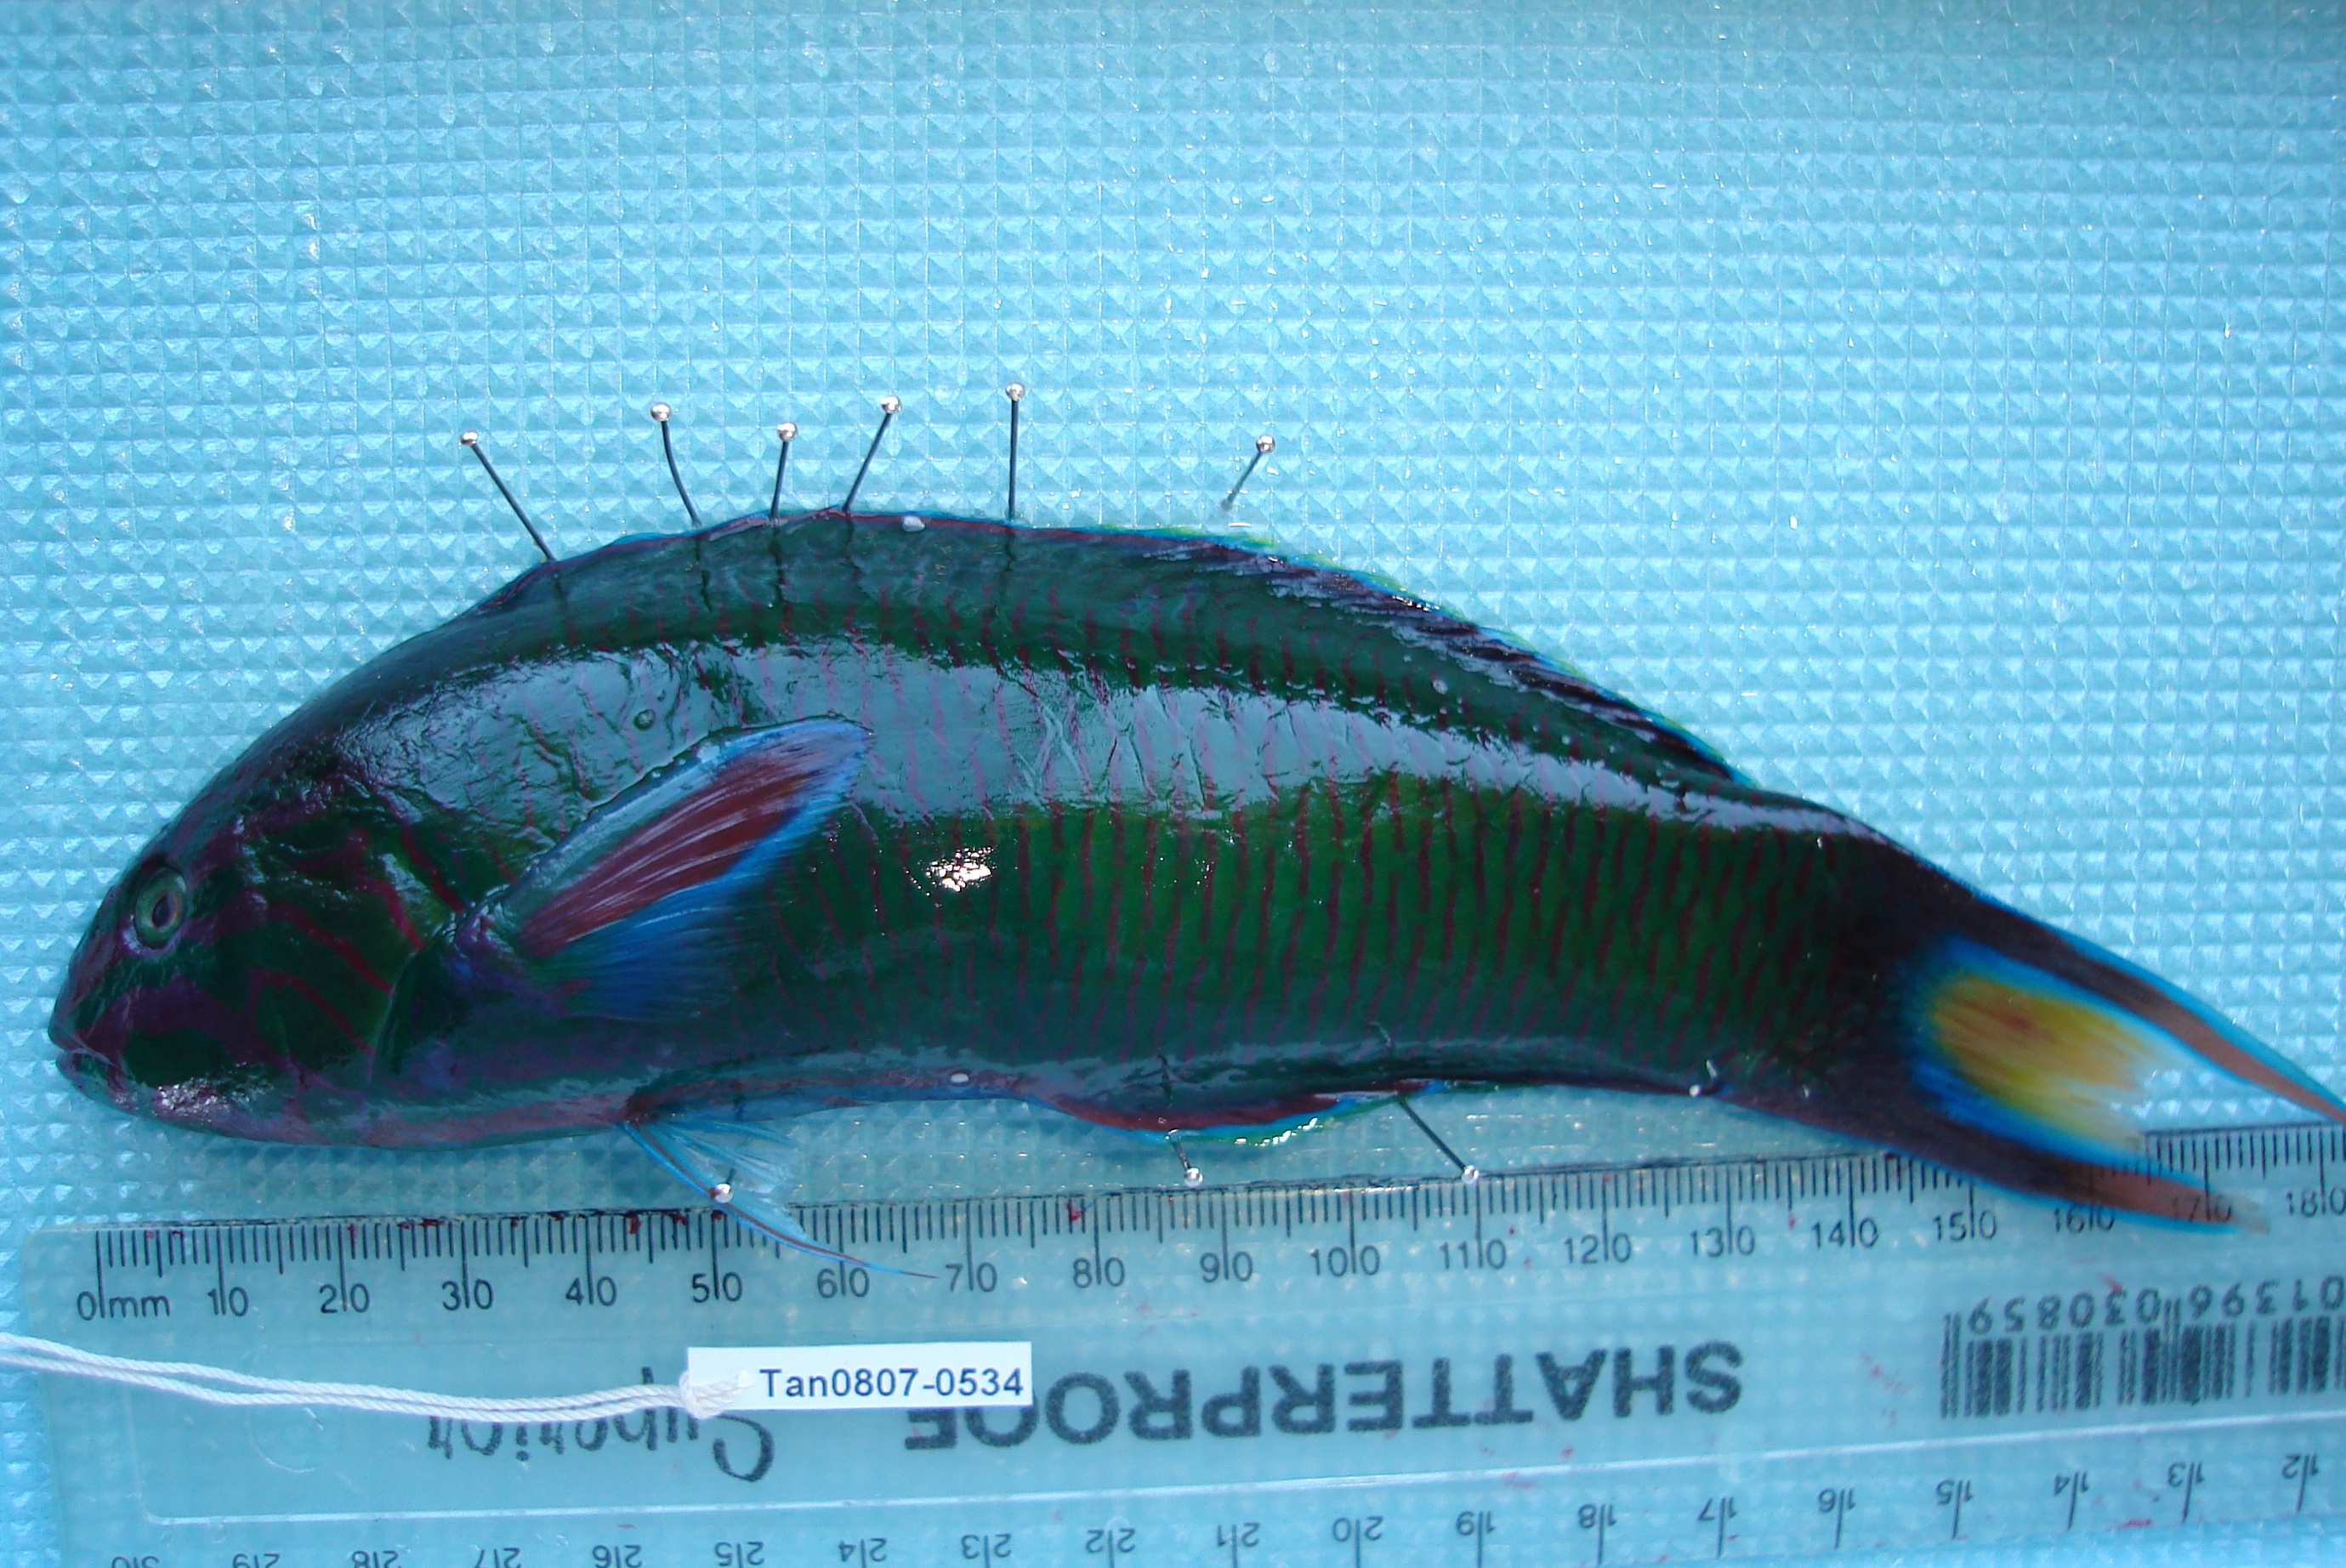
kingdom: Animalia
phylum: Chordata
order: Perciformes
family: Labridae
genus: Thalassoma
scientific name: Thalassoma lunare
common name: Blue wrasse
